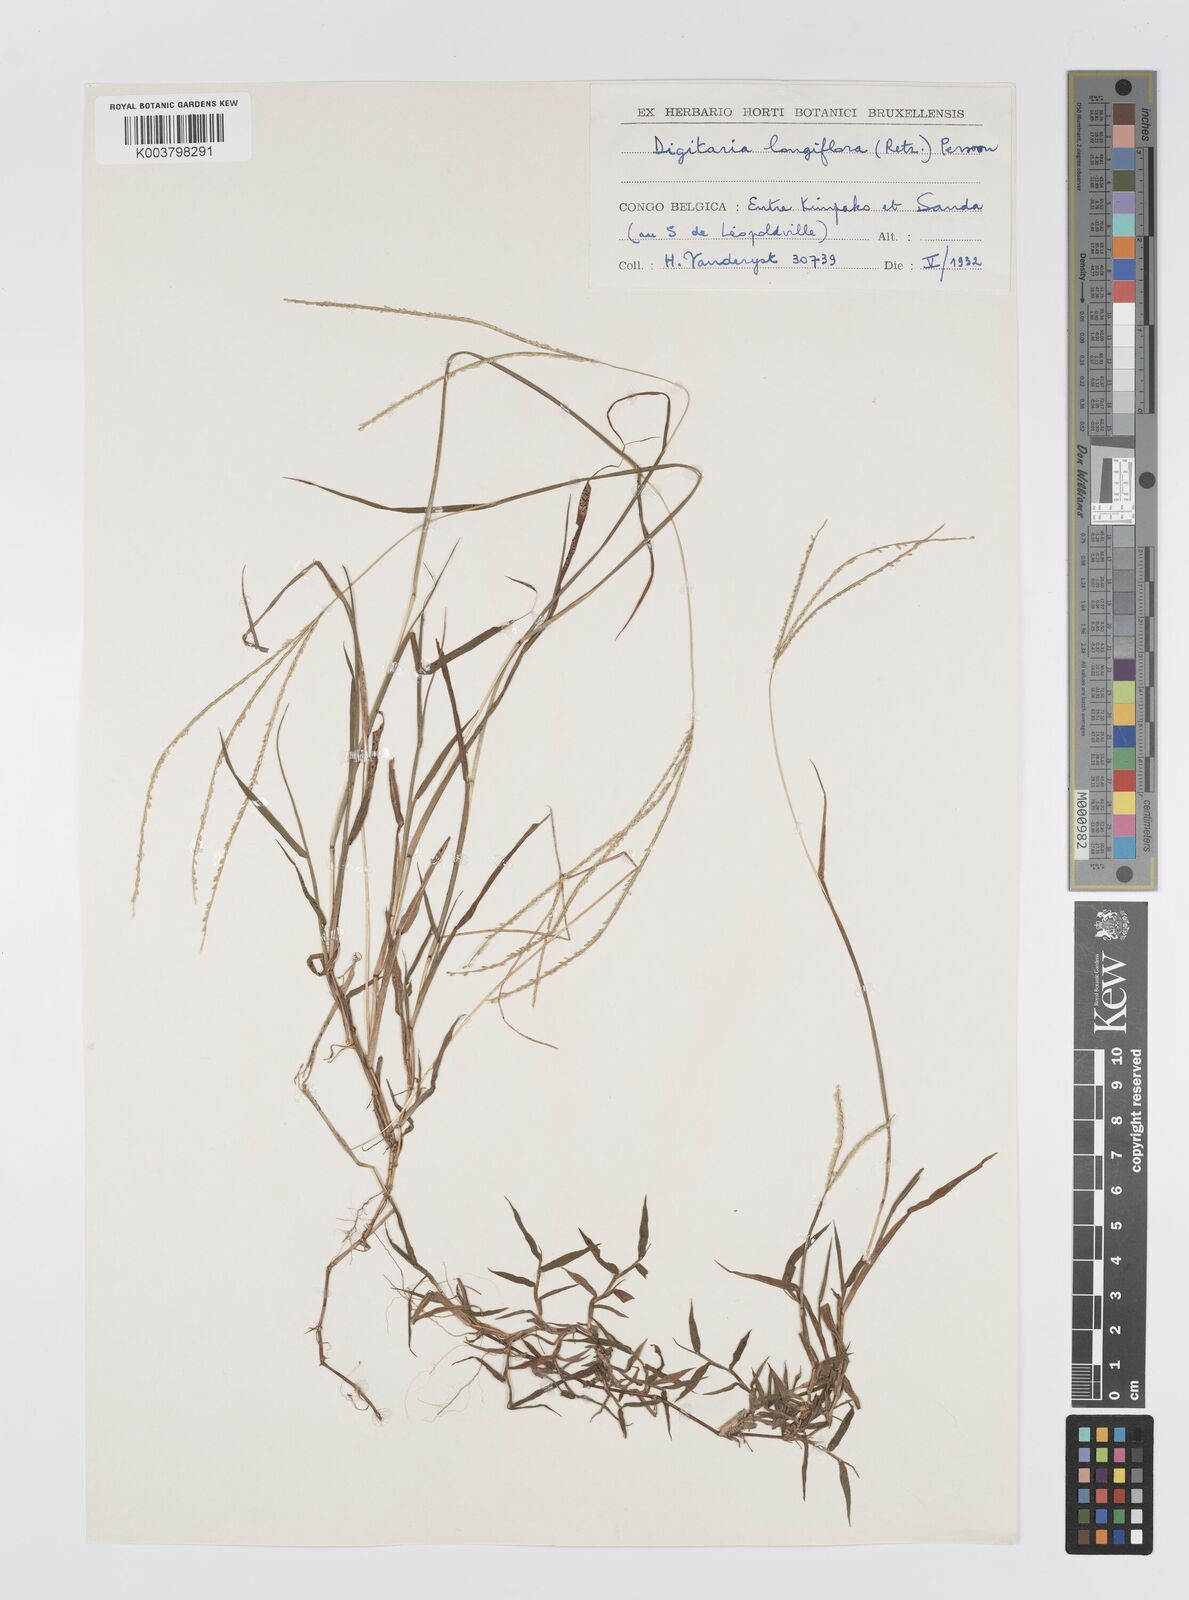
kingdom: Plantae
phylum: Tracheophyta
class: Liliopsida
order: Poales
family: Poaceae
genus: Digitaria
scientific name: Digitaria longiflora
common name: Wire crabgrass
